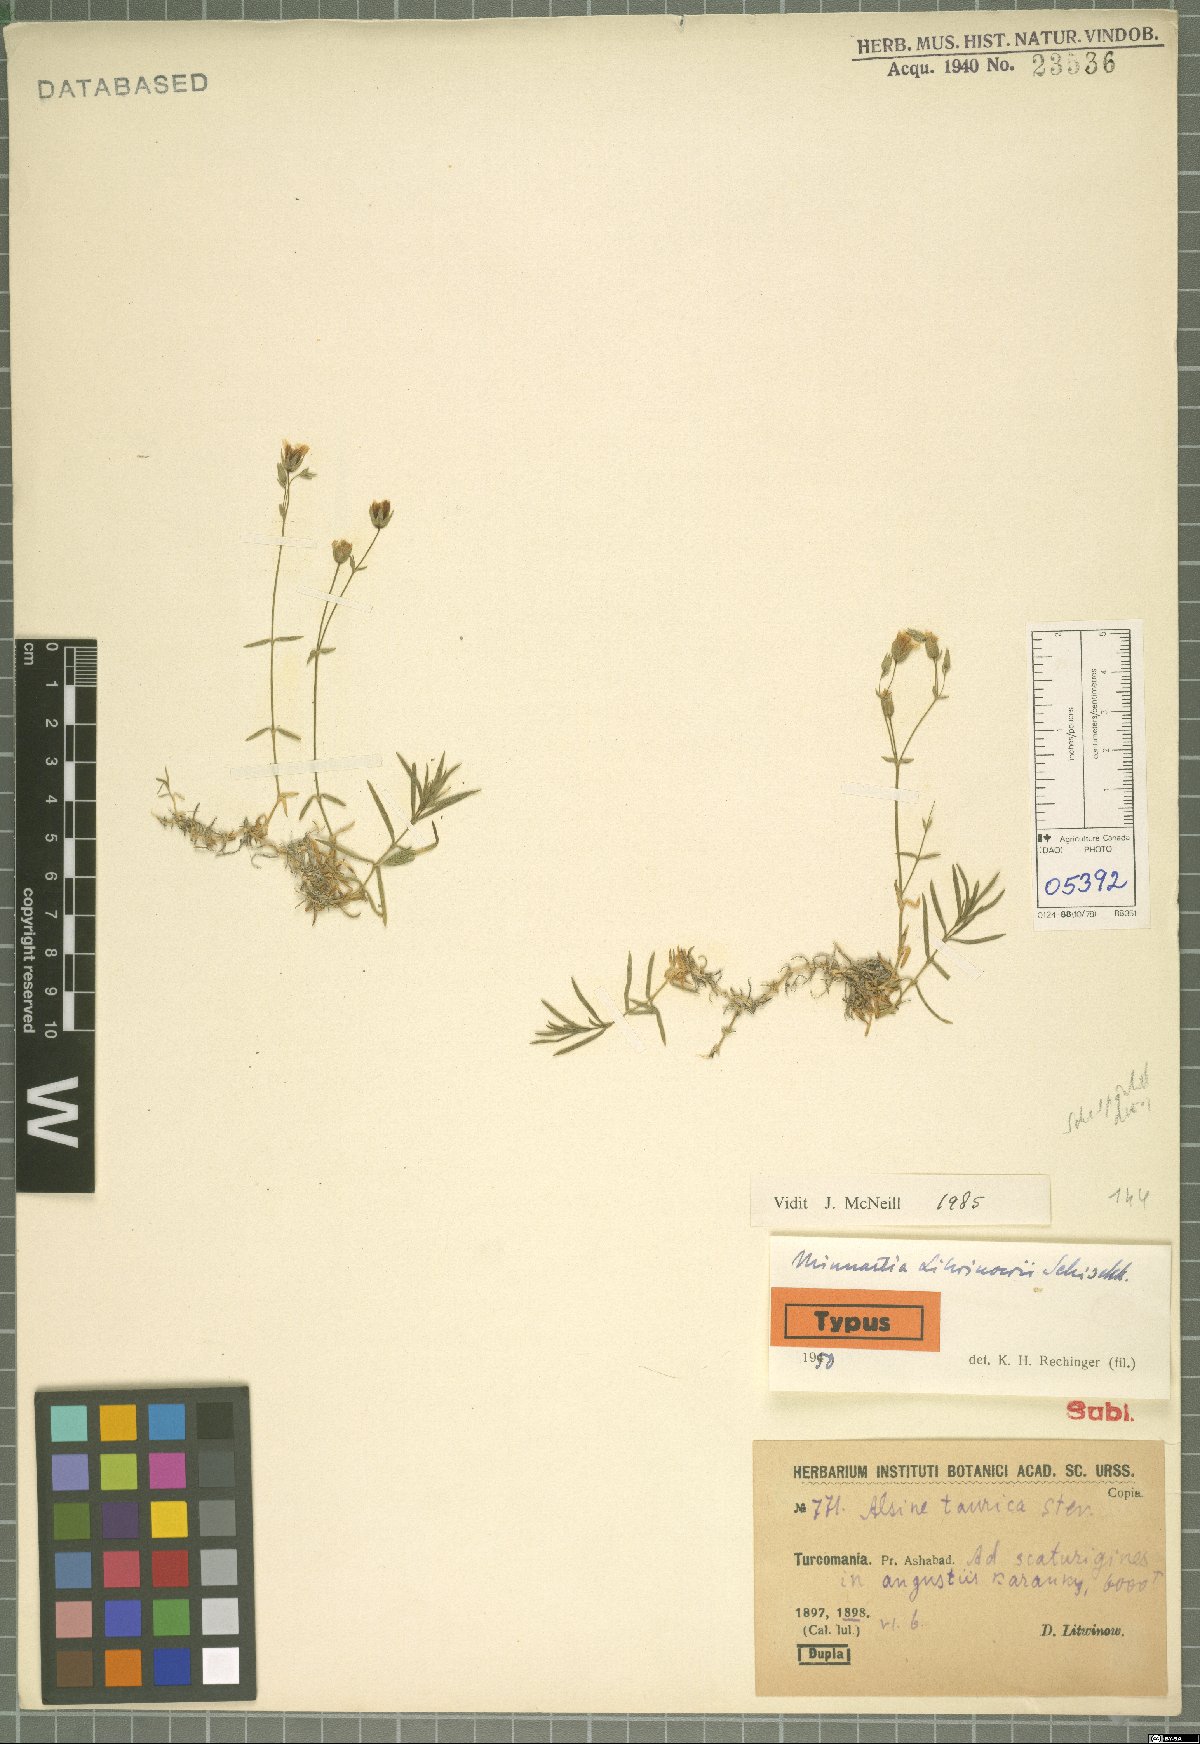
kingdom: Plantae
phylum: Tracheophyta
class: Magnoliopsida
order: Caryophyllales
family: Caryophyllaceae
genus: Sabulina
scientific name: Sabulina litwinowii
